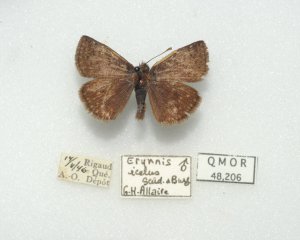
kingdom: Animalia
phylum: Arthropoda
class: Insecta
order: Lepidoptera
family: Hesperiidae
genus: Erynnis
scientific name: Erynnis icelus
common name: Dreamy Duskywing
